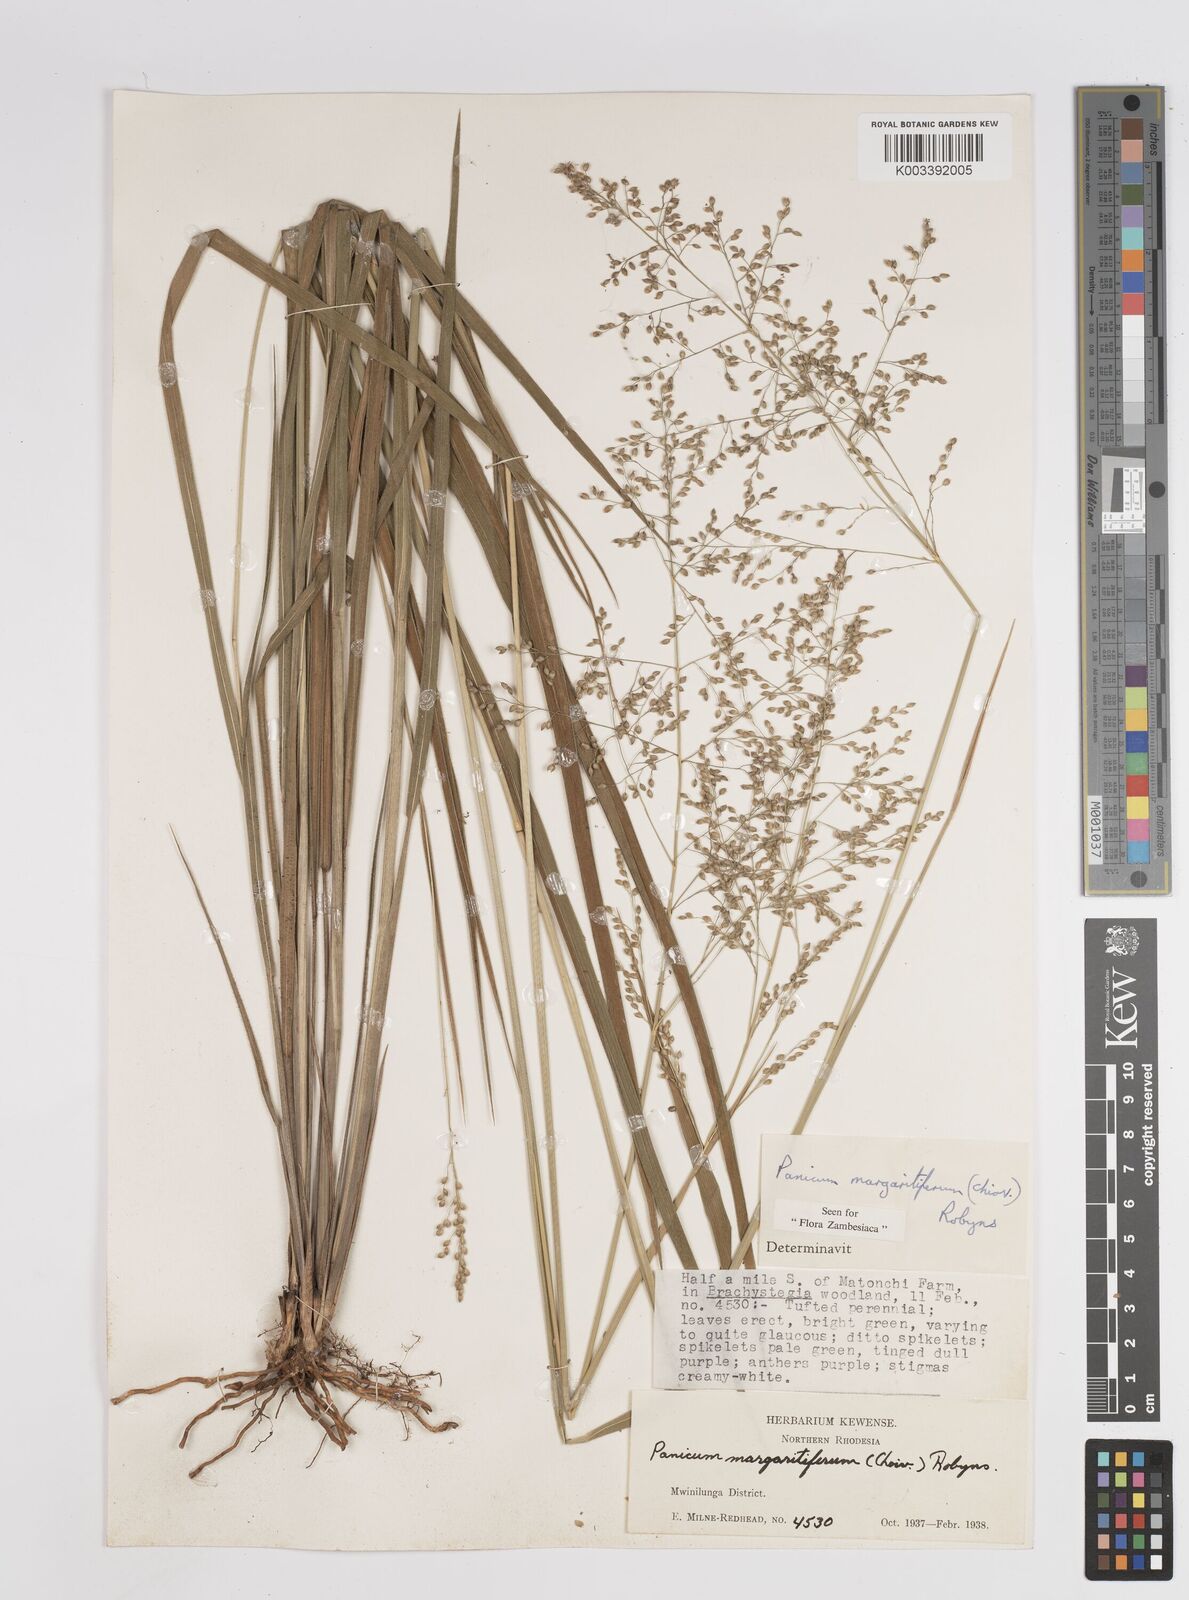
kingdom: Plantae
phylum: Tracheophyta
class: Liliopsida
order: Poales
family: Poaceae
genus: Sacciolepis
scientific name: Sacciolepis myuros
